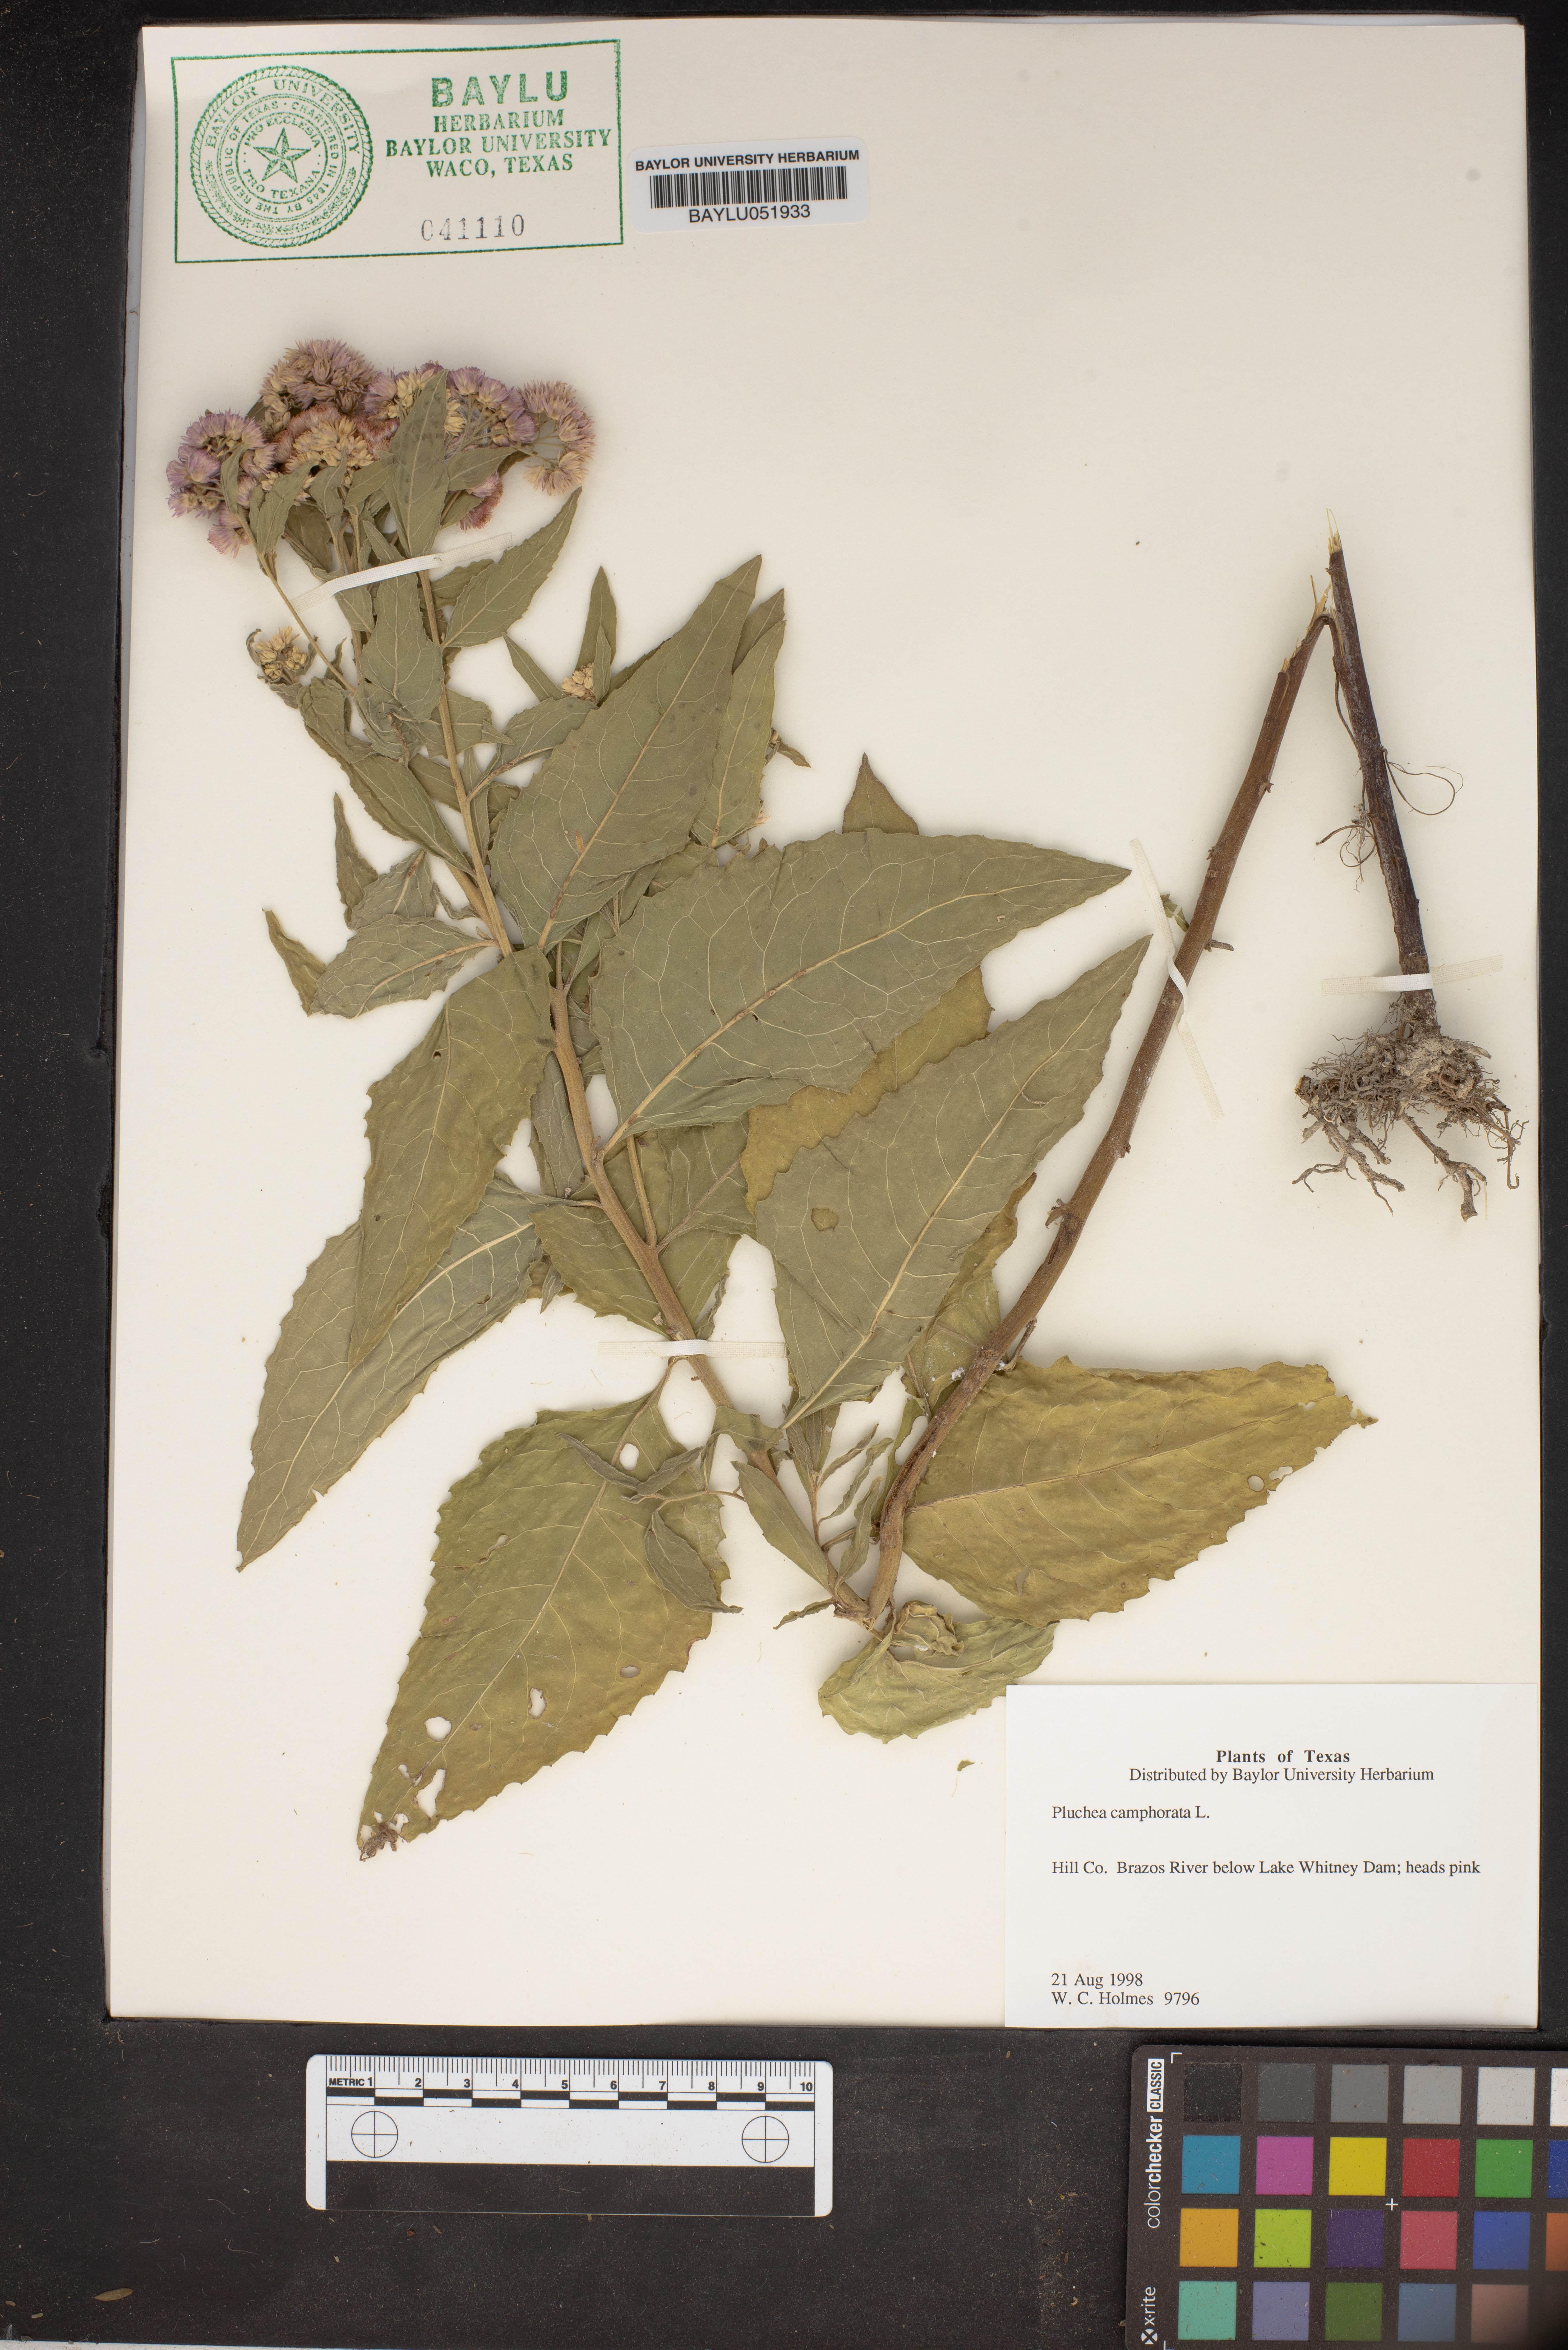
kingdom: Plantae
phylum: Tracheophyta
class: Magnoliopsida
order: Asterales
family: Asteraceae
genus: Pluchea
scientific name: Pluchea camphorata
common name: Camphor pluchea
